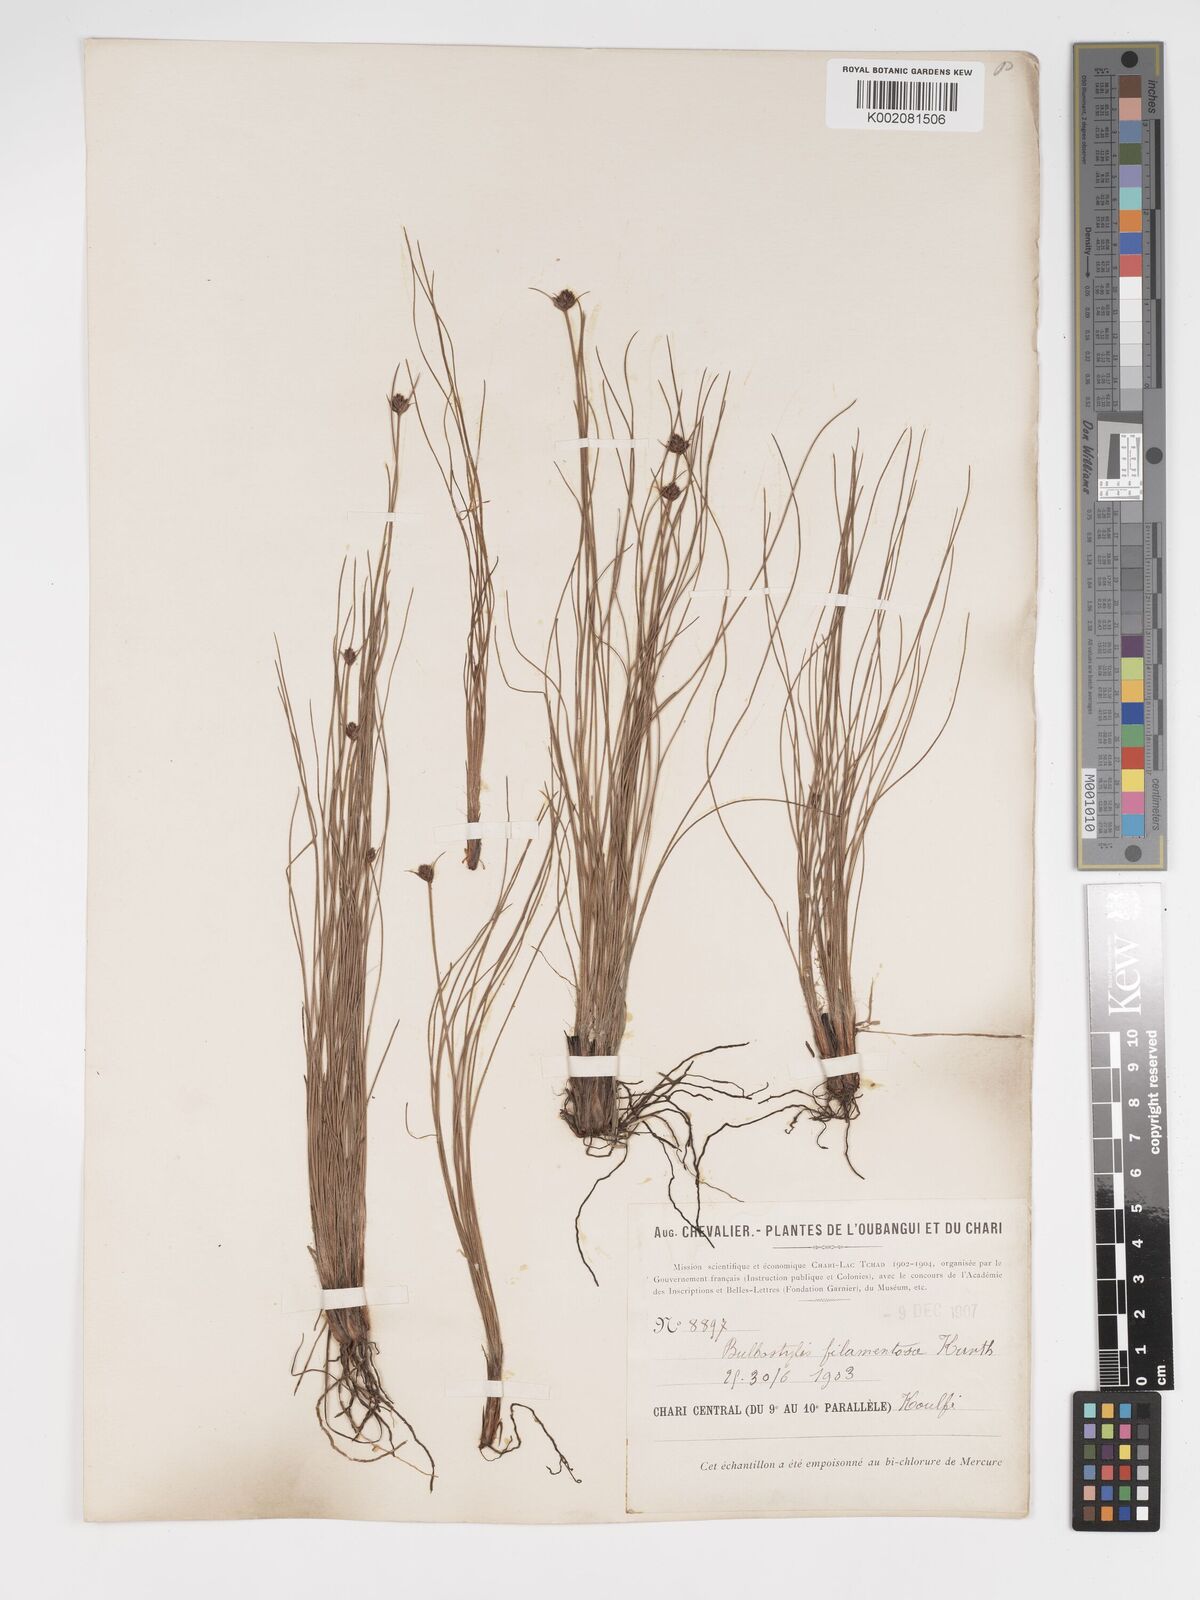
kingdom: Plantae
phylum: Tracheophyta
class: Liliopsida
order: Poales
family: Cyperaceae
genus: Bulbostylis
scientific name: Bulbostylis scabricaulis
